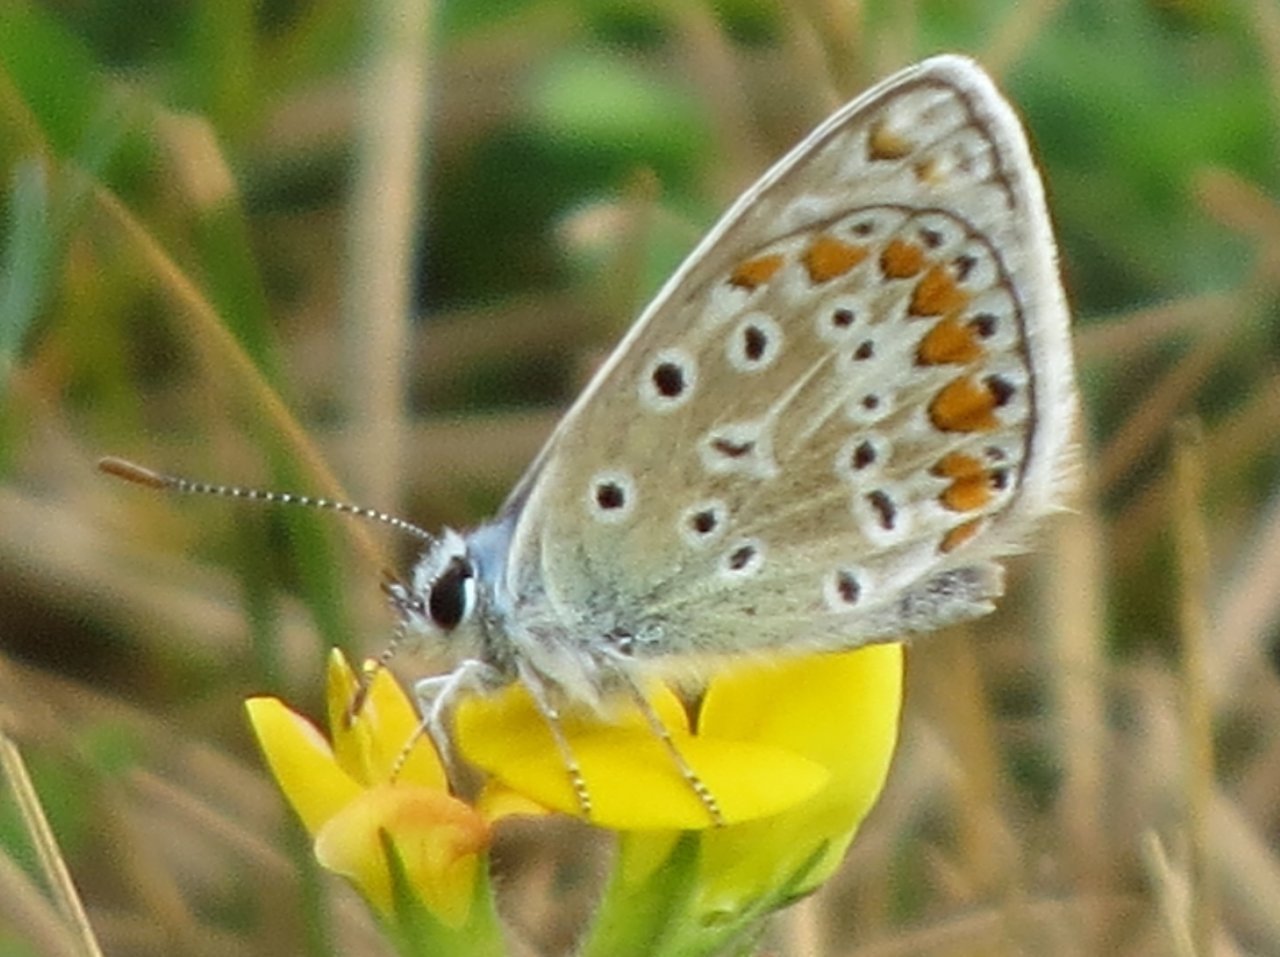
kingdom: Animalia
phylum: Arthropoda
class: Insecta
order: Lepidoptera
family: Lycaenidae
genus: Polyommatus
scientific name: Polyommatus icarus
